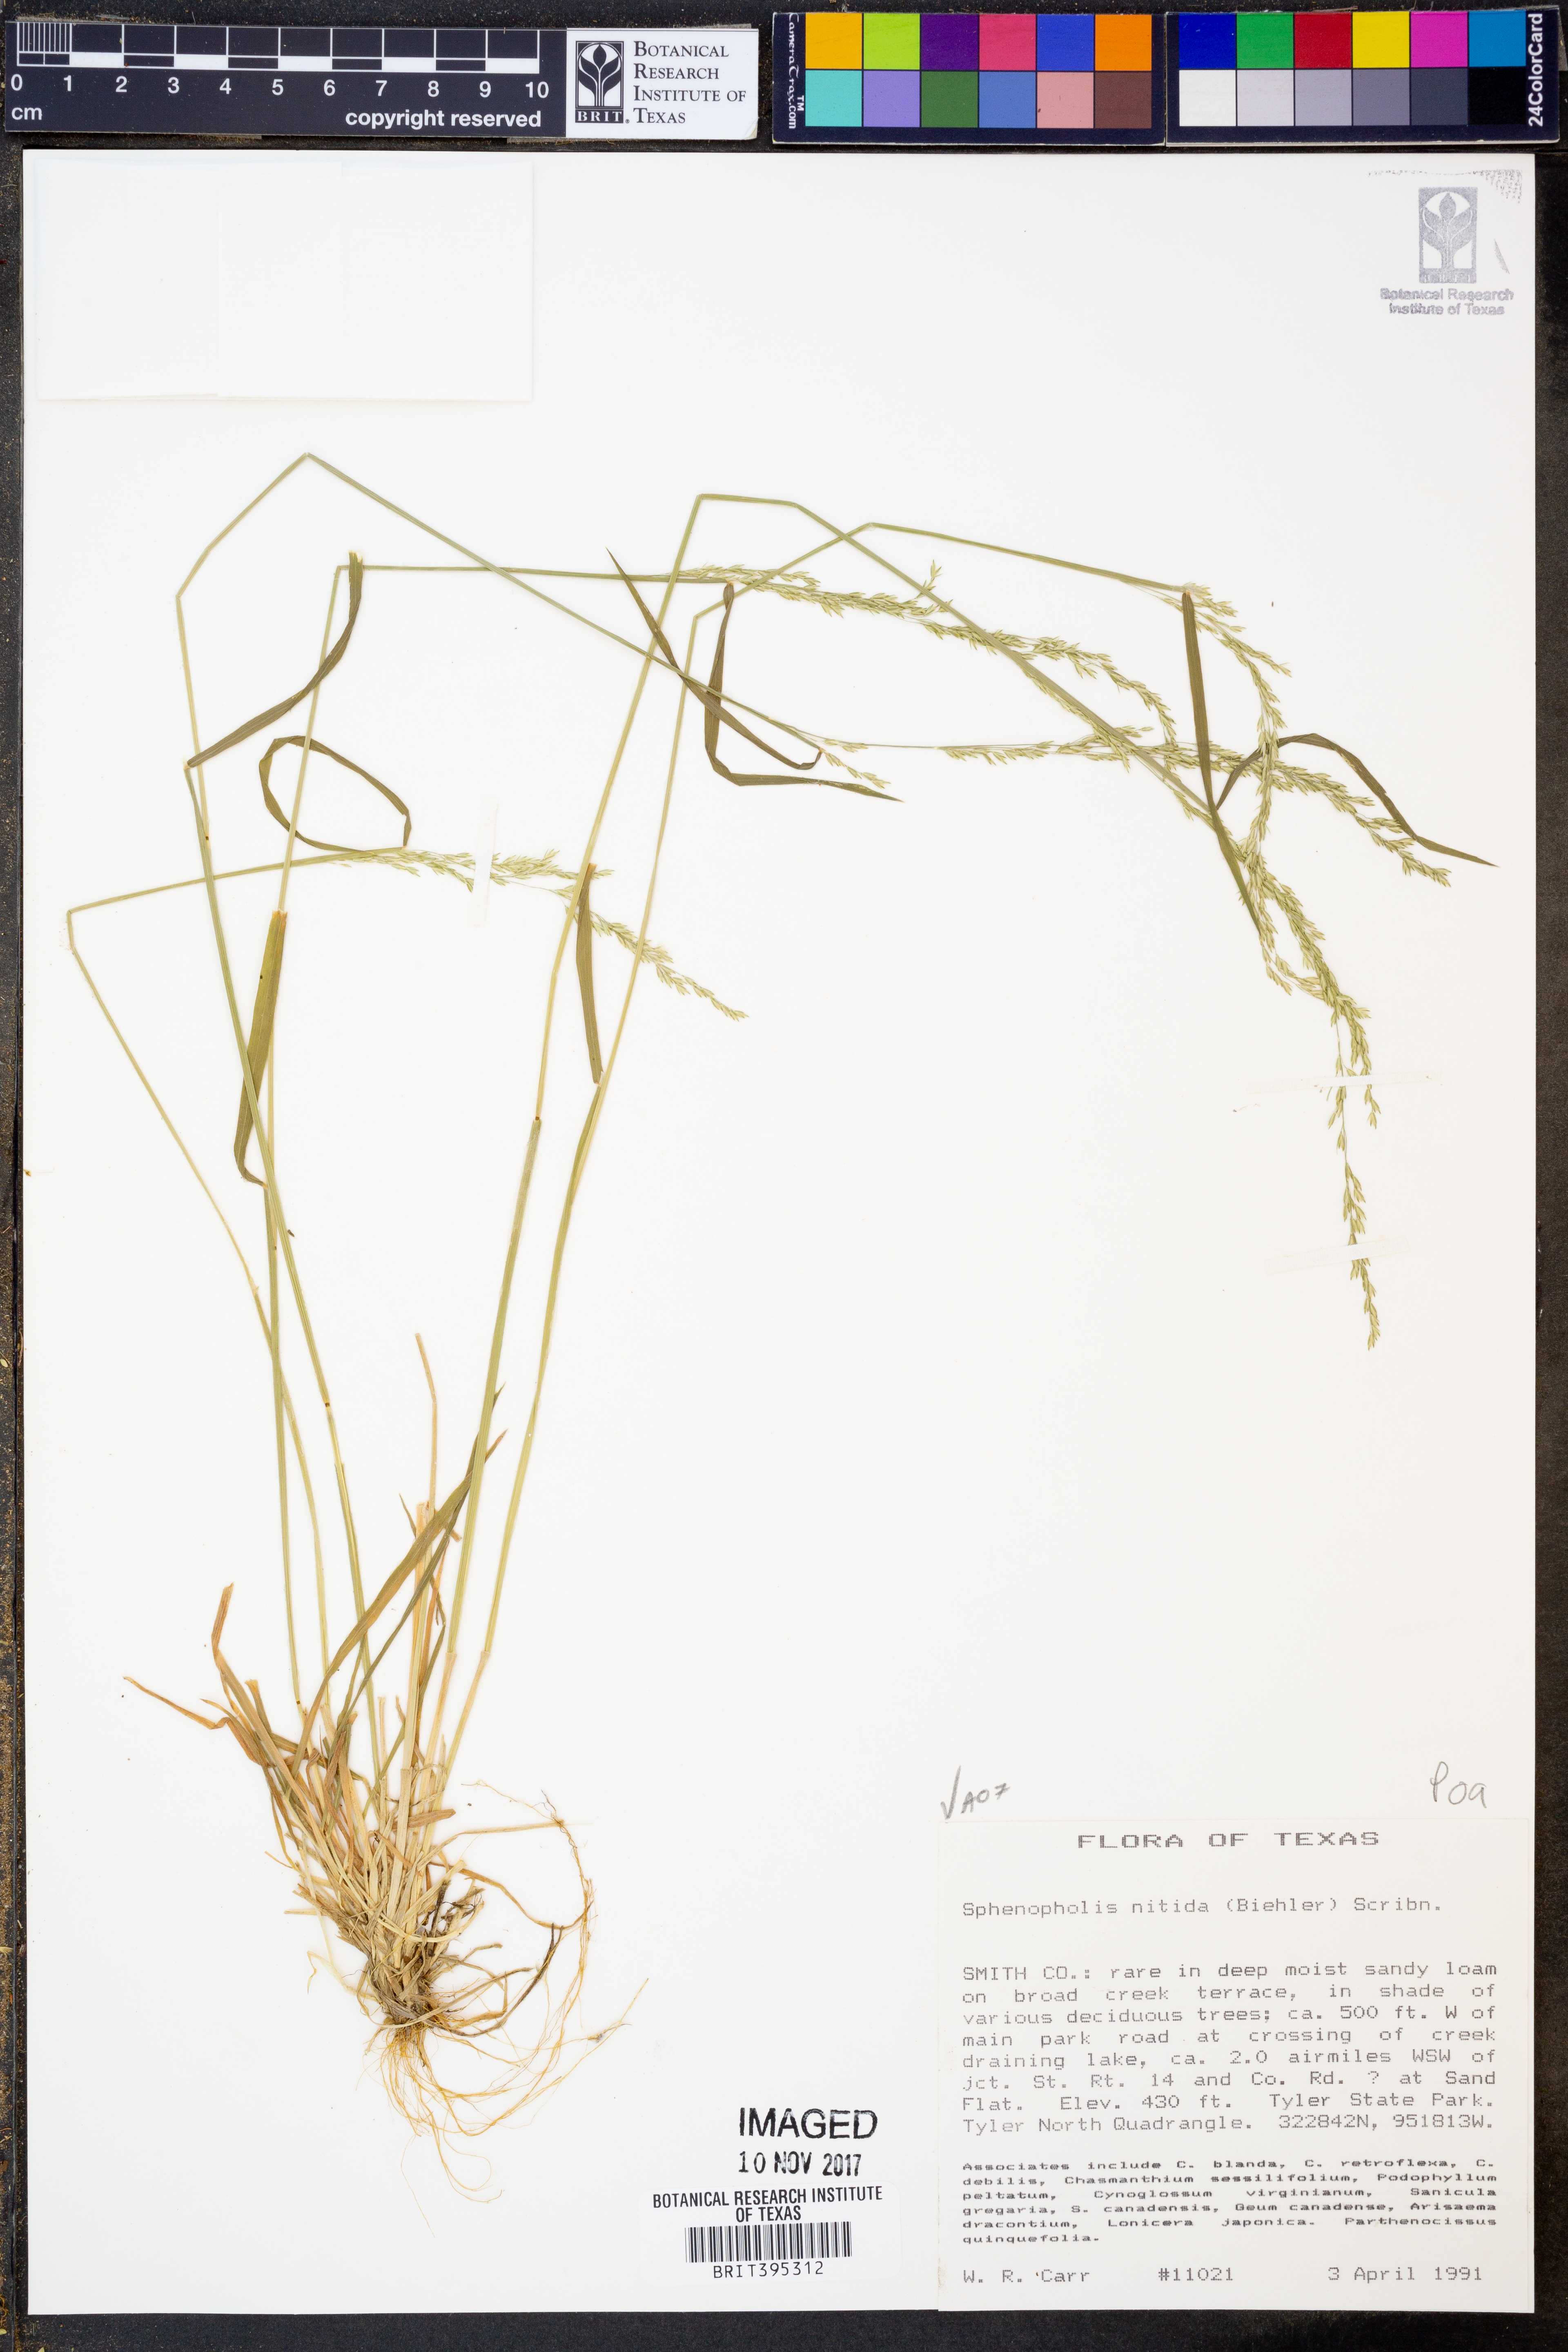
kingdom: Plantae
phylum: Tracheophyta
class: Liliopsida
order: Poales
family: Poaceae
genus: Sphenopholis
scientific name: Sphenopholis nitida
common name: Shiny wedgegrass
